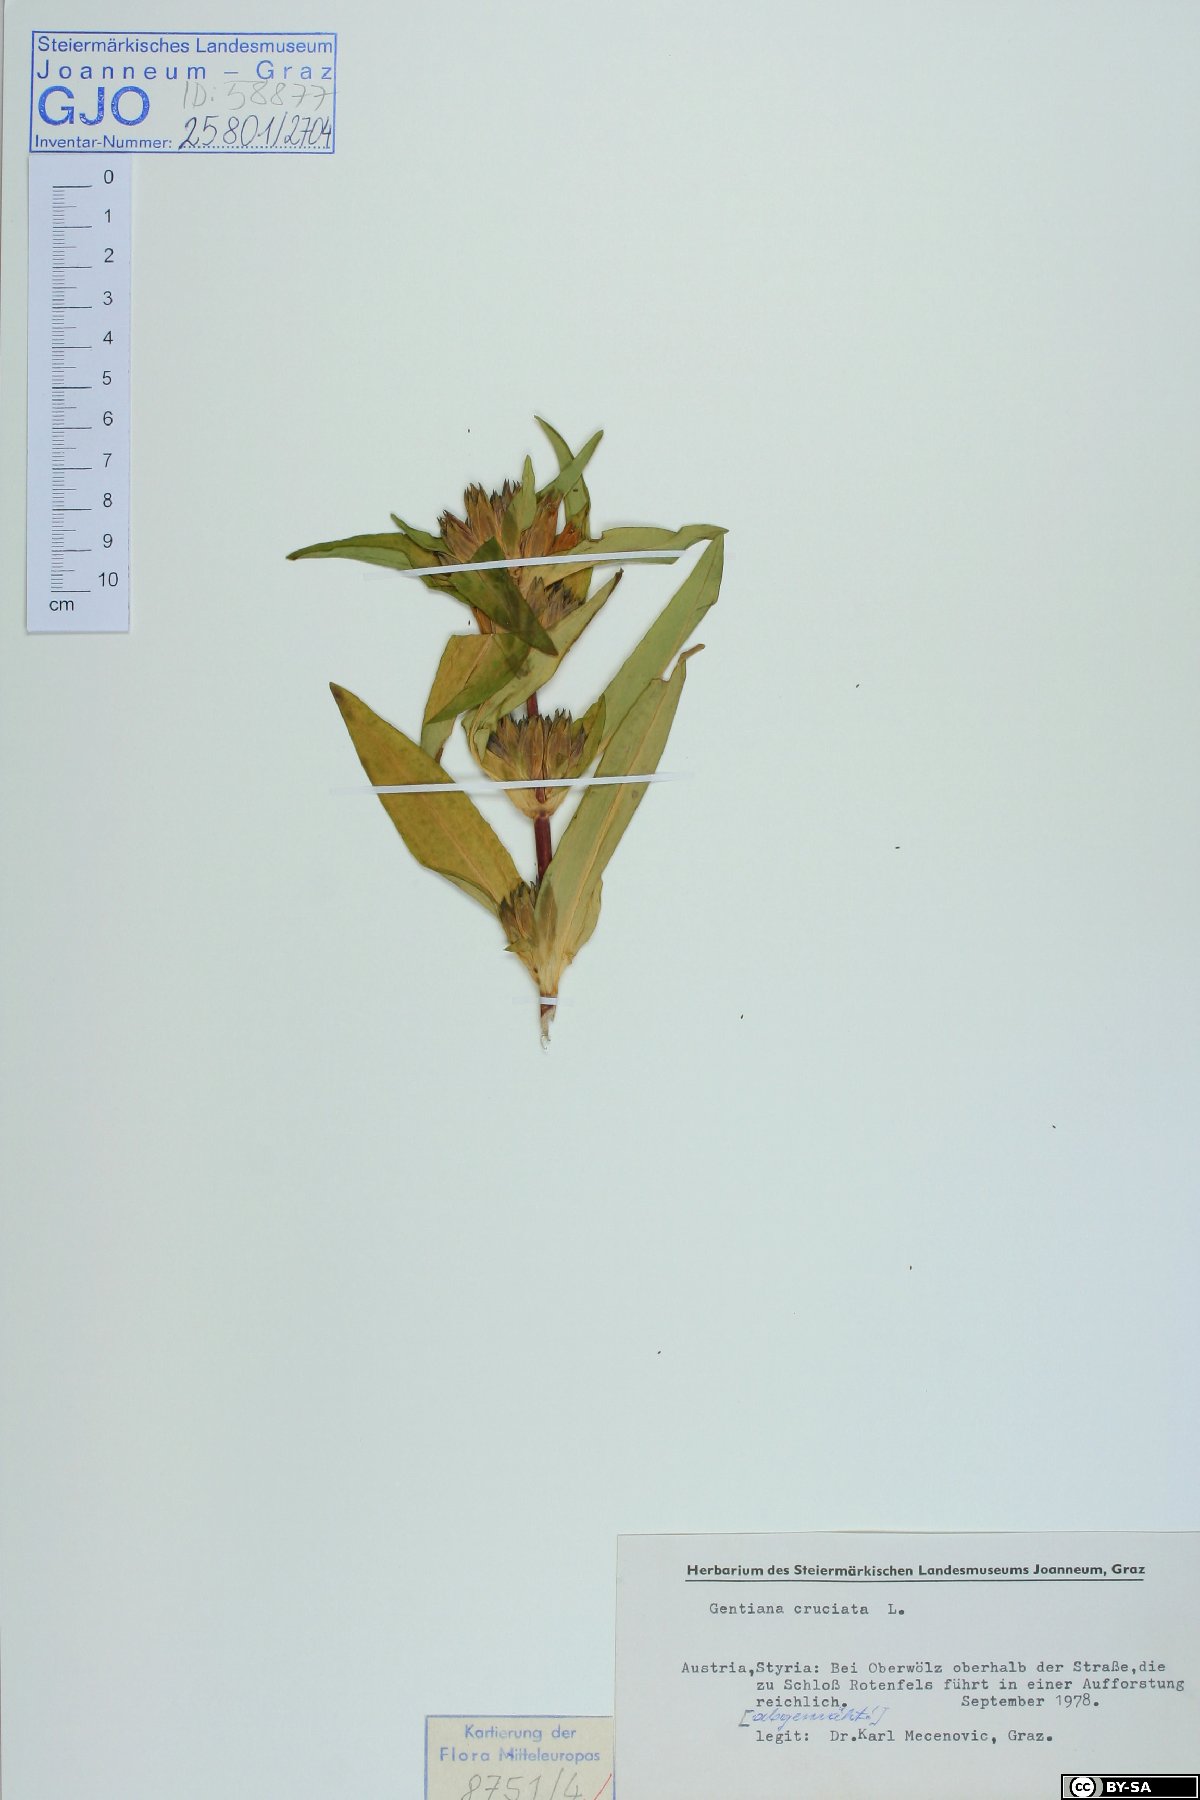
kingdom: Plantae
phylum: Tracheophyta
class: Magnoliopsida
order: Gentianales
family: Gentianaceae
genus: Gentiana
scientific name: Gentiana cruciata
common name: Cross gentian
